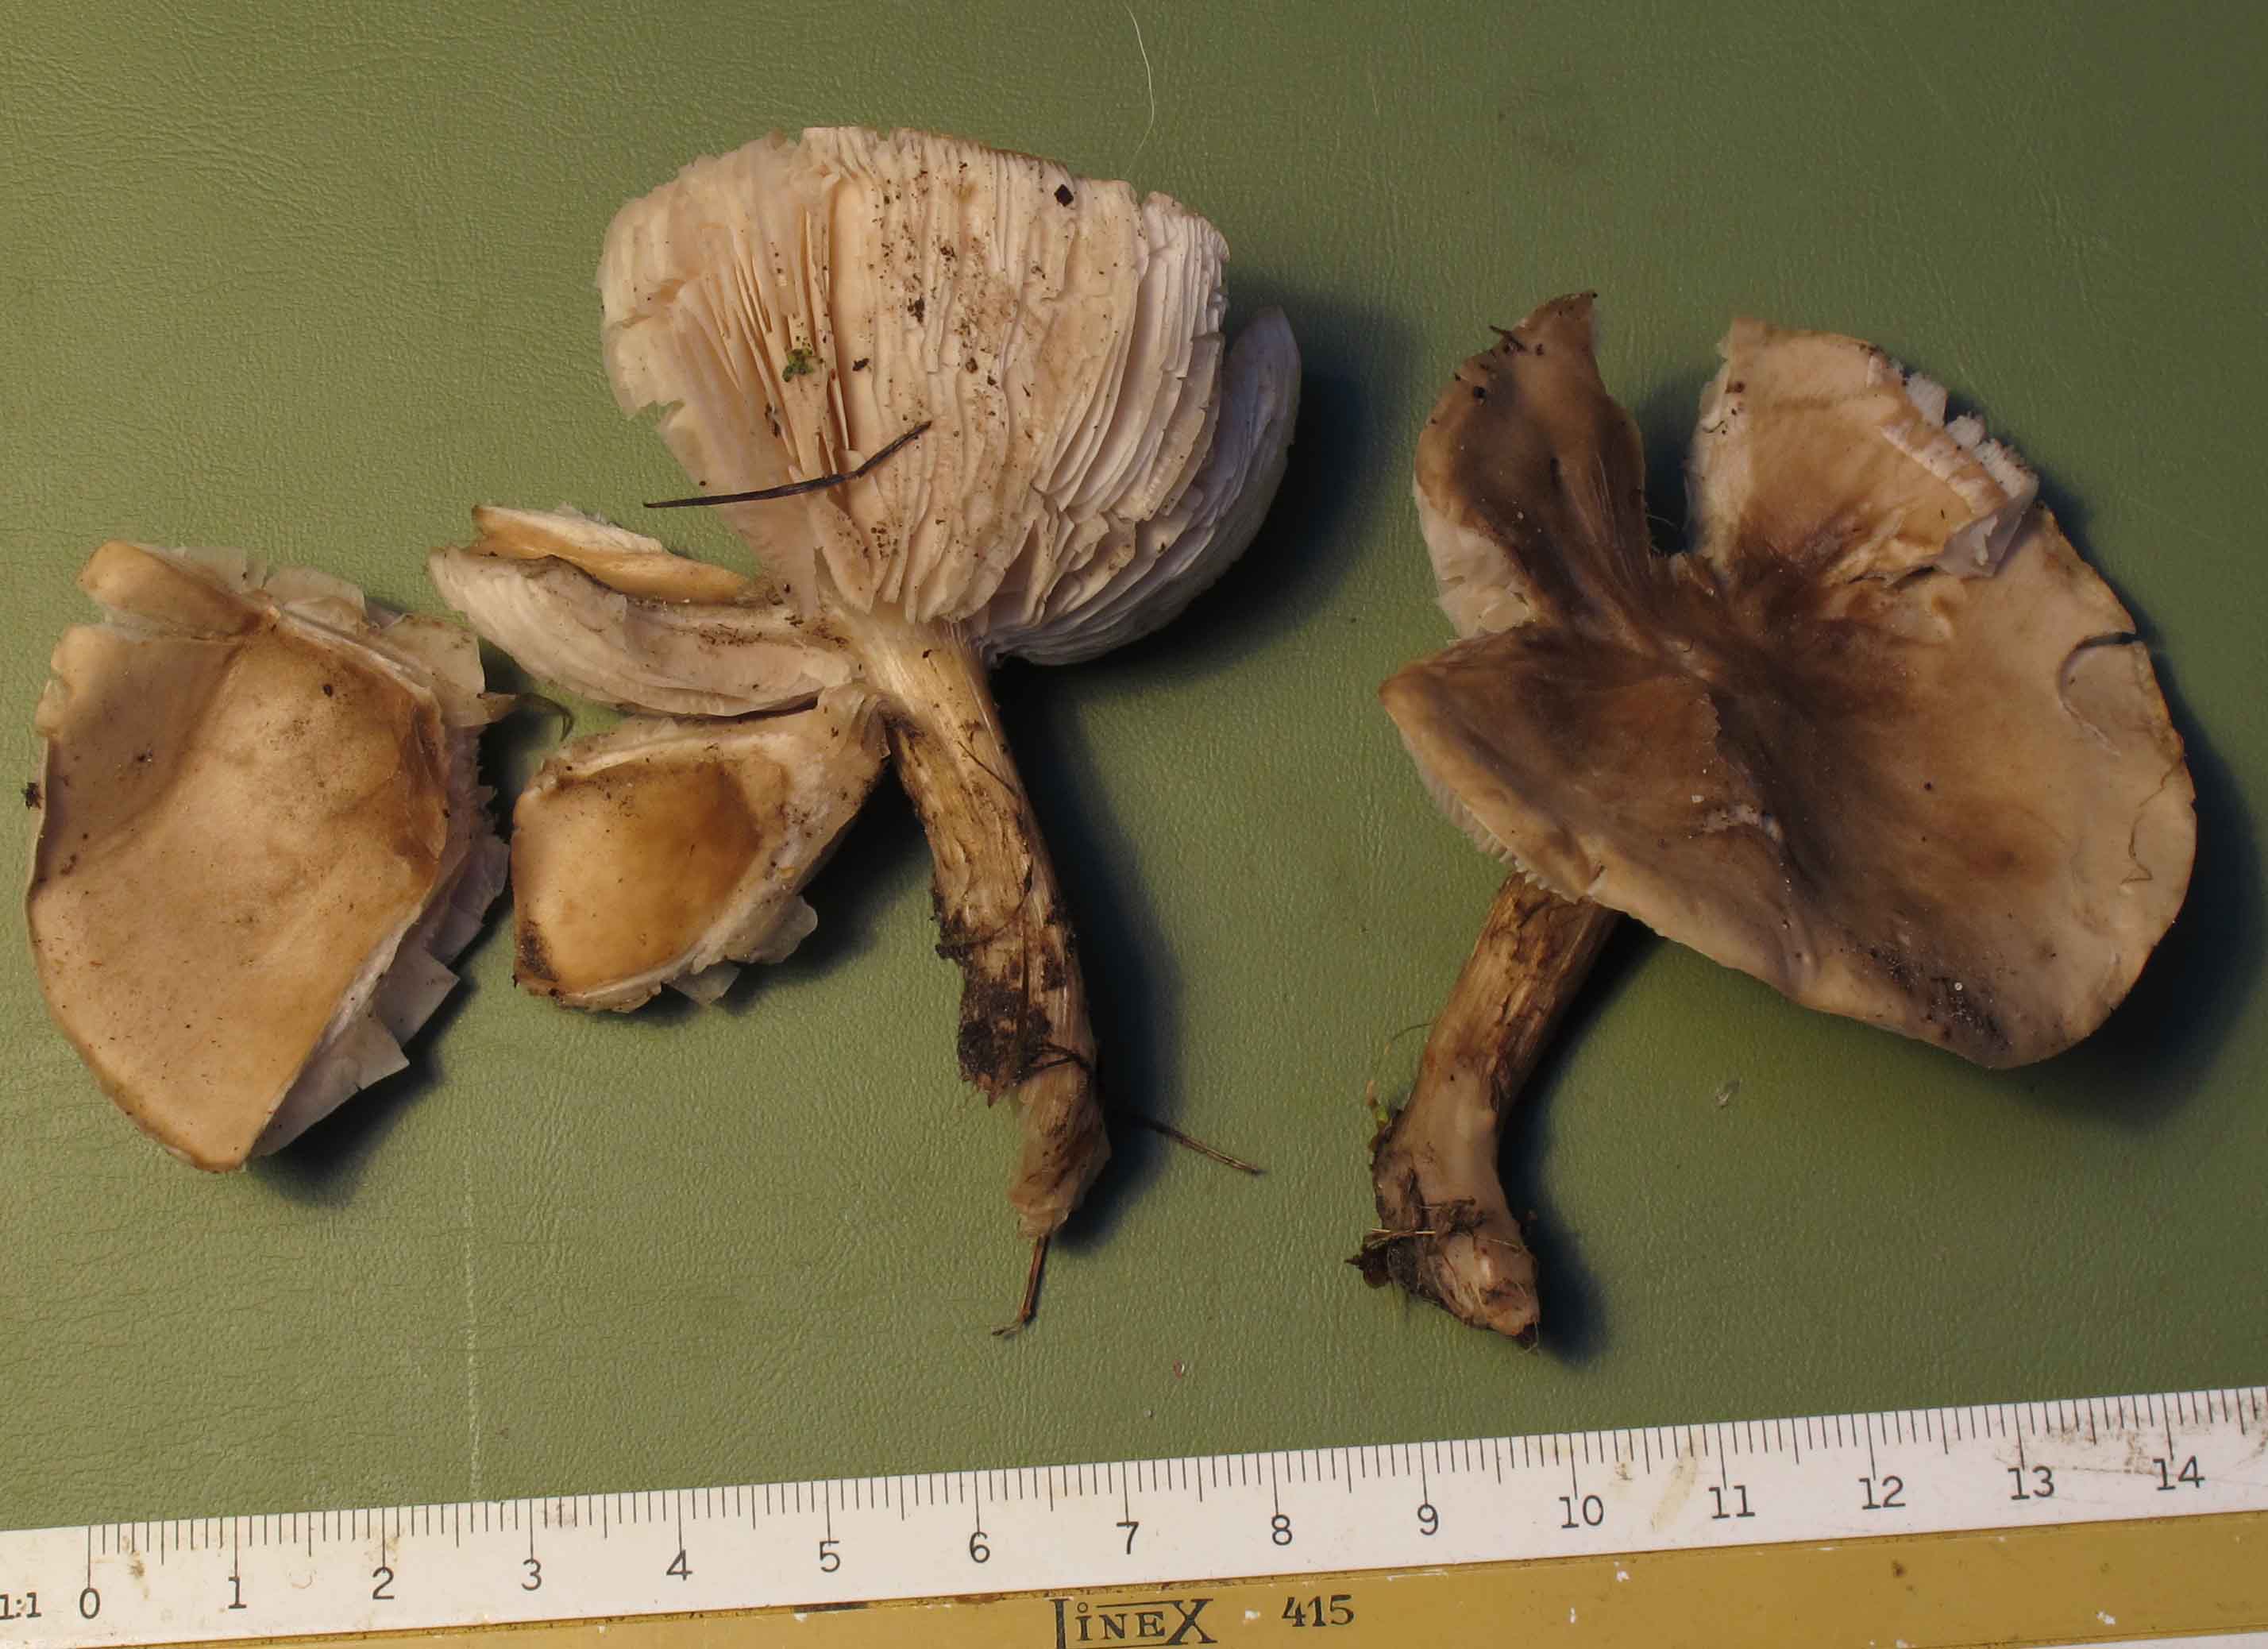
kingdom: Fungi
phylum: Basidiomycota
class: Agaricomycetes
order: Agaricales
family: Tricholomataceae
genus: Melanoleuca
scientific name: Melanoleuca exscissa
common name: gusten munkehat
